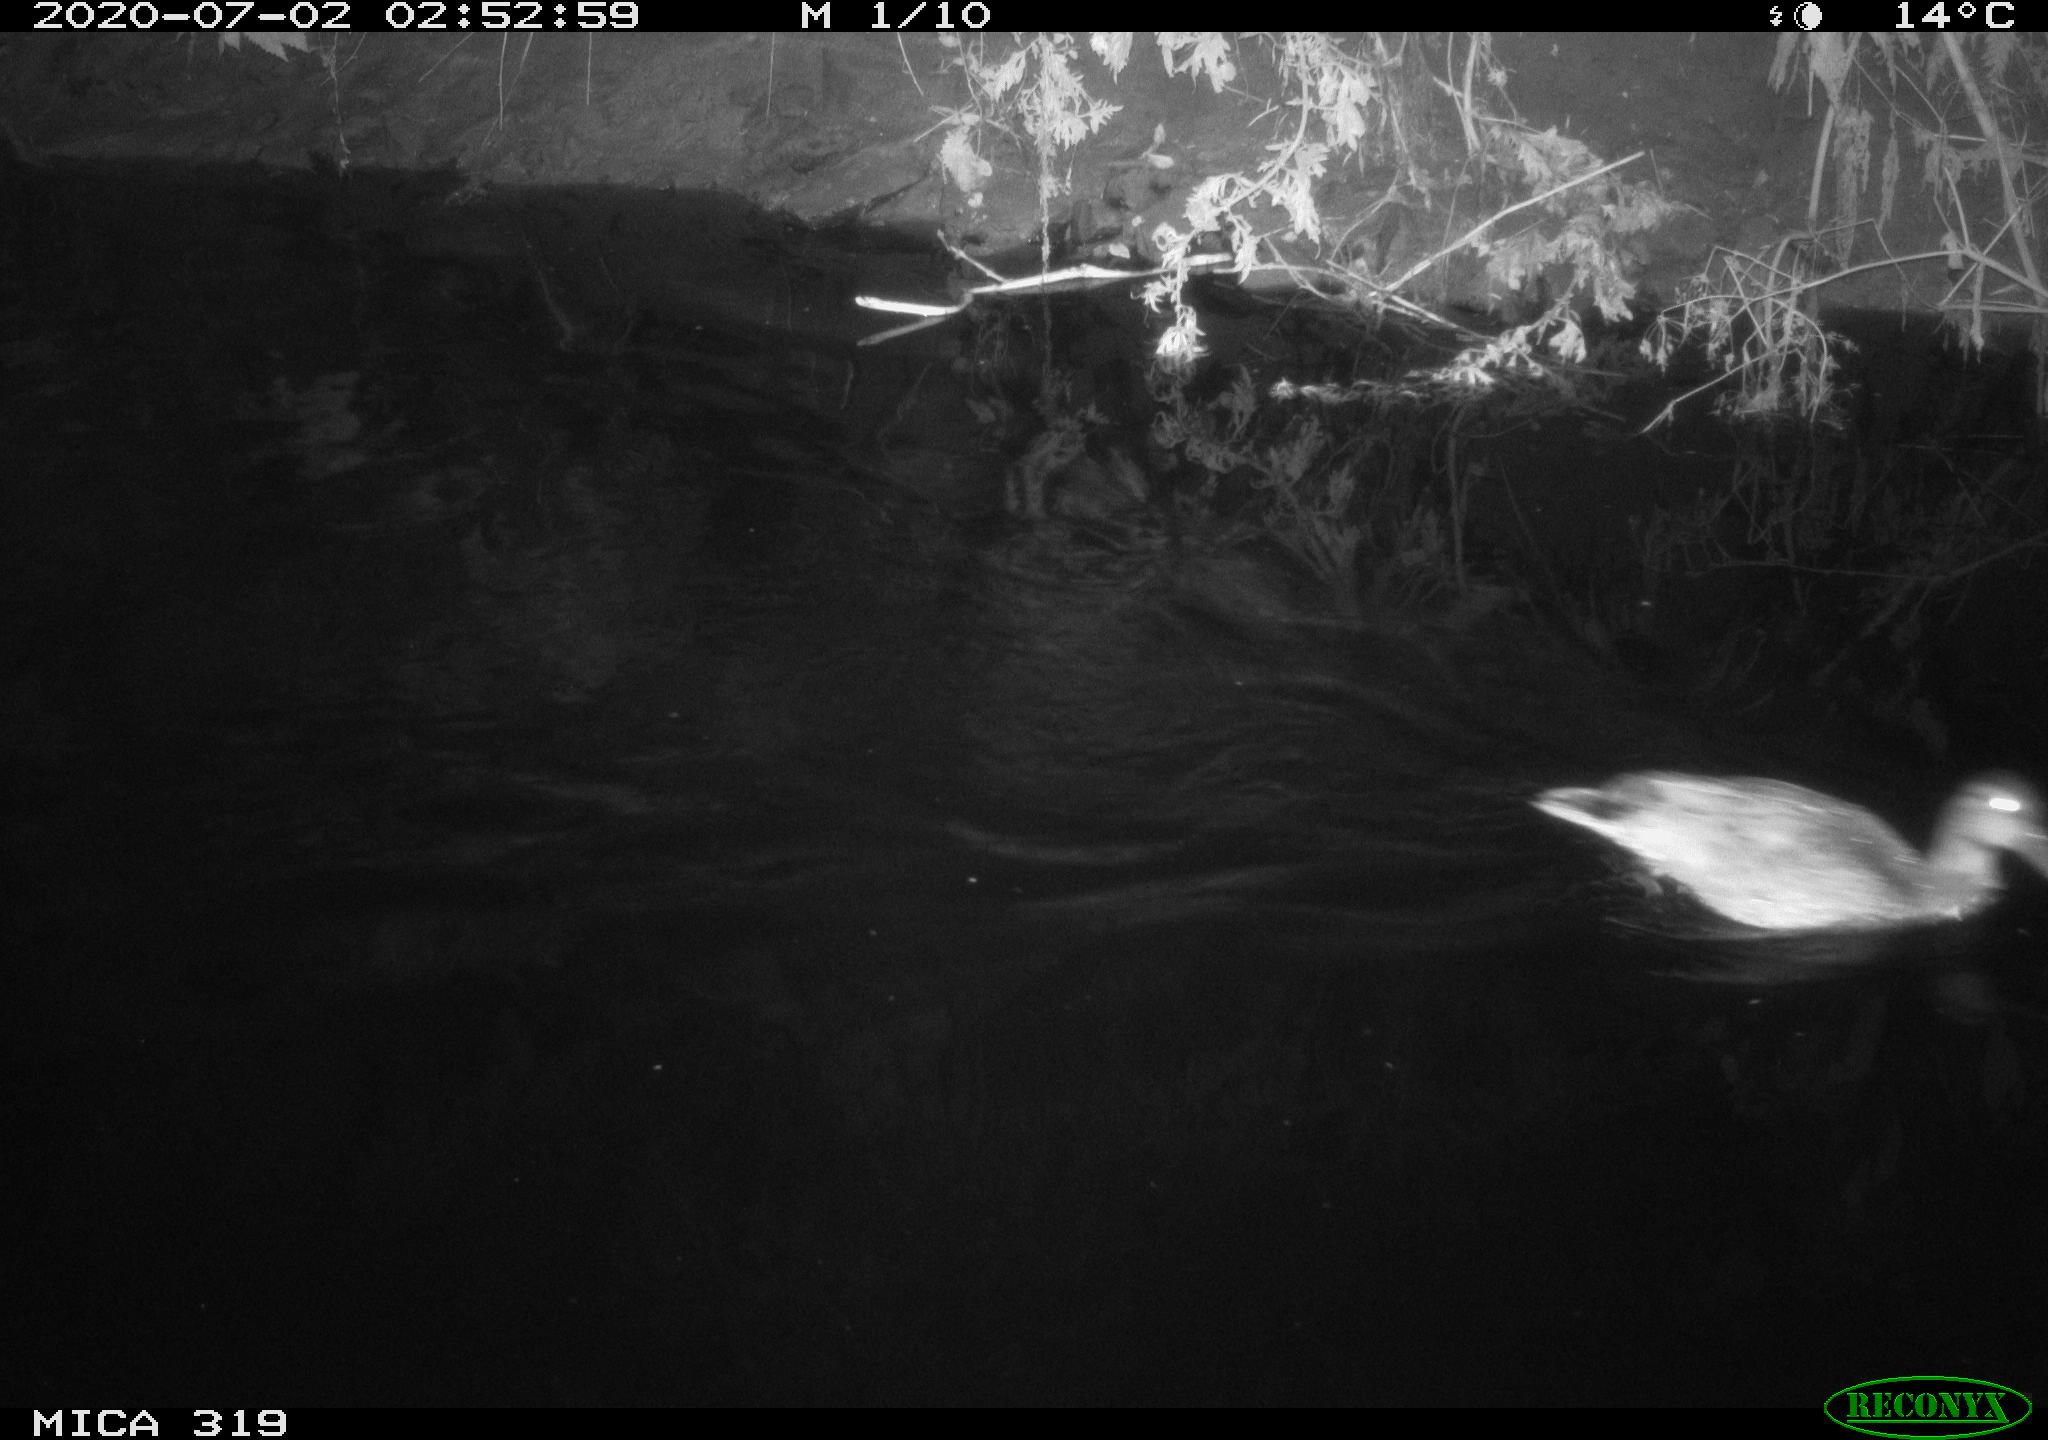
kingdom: Animalia
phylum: Chordata
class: Aves
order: Anseriformes
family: Anatidae
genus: Anas
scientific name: Anas platyrhynchos
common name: Mallard
